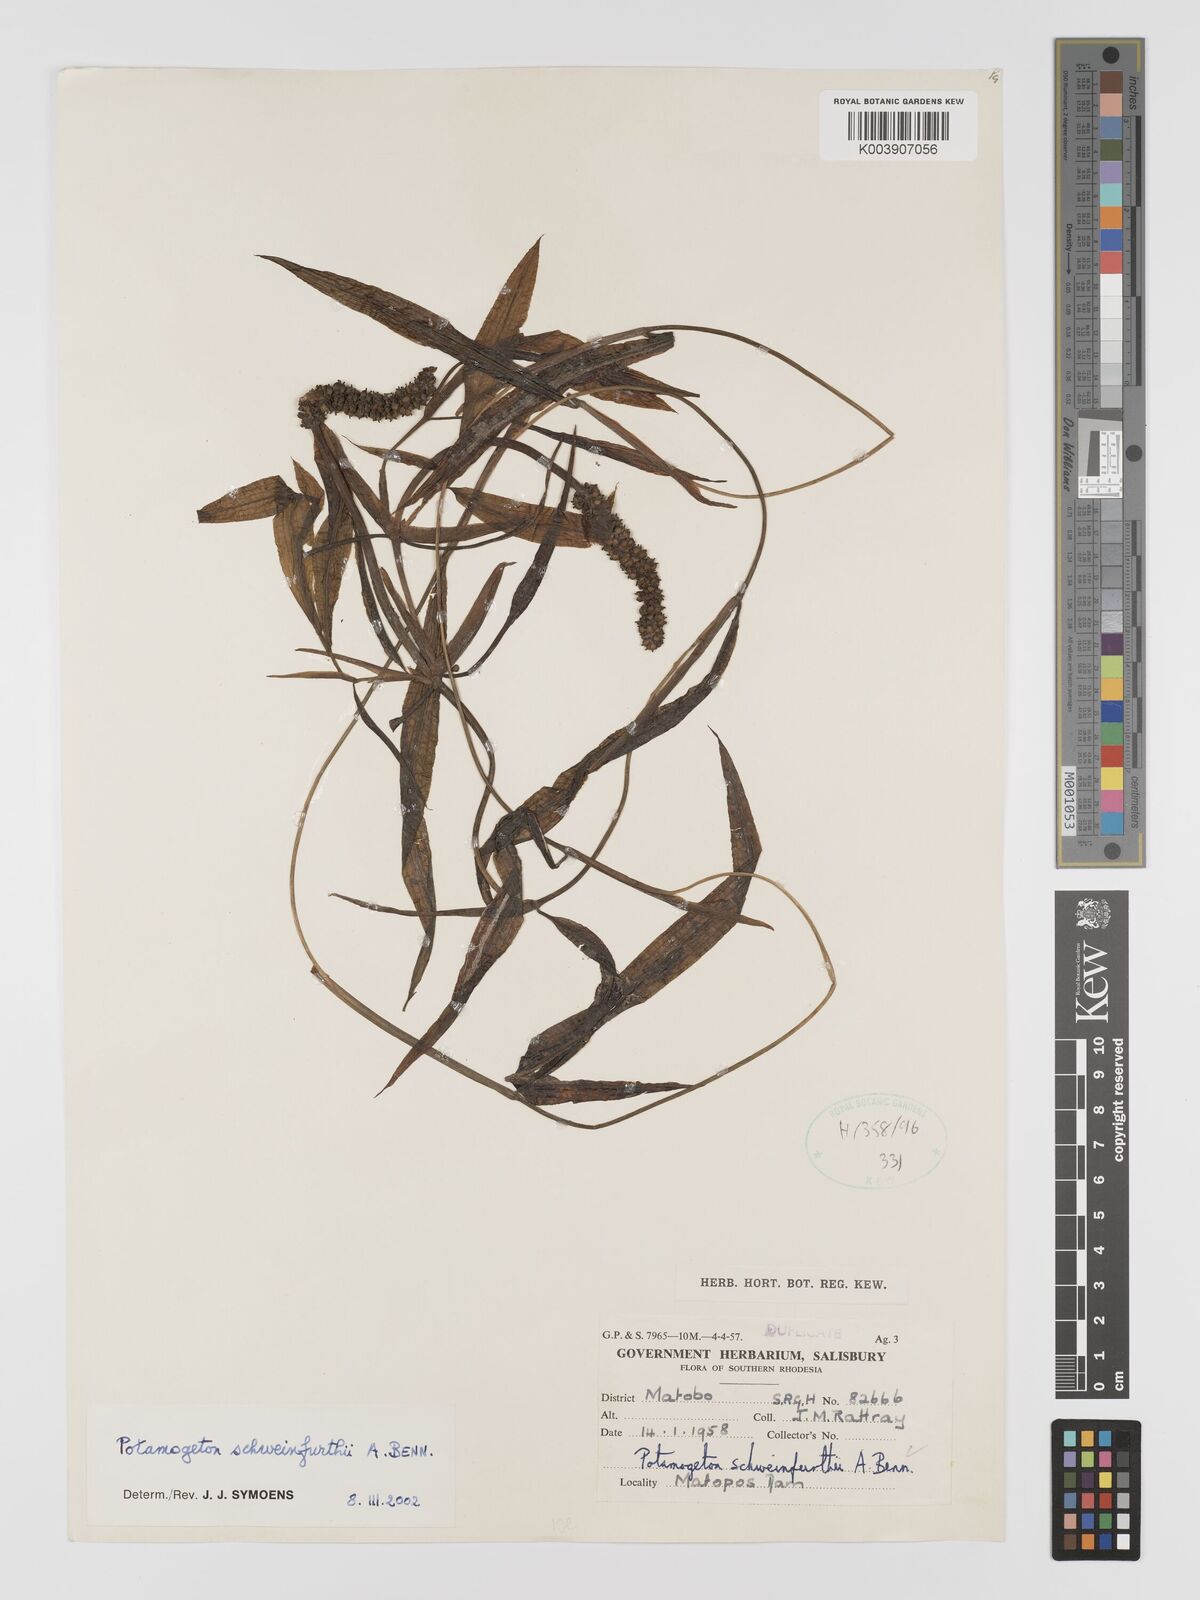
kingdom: Plantae
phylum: Tracheophyta
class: Liliopsida
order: Alismatales
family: Potamogetonaceae
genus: Potamogeton
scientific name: Potamogeton schweinfurthii
